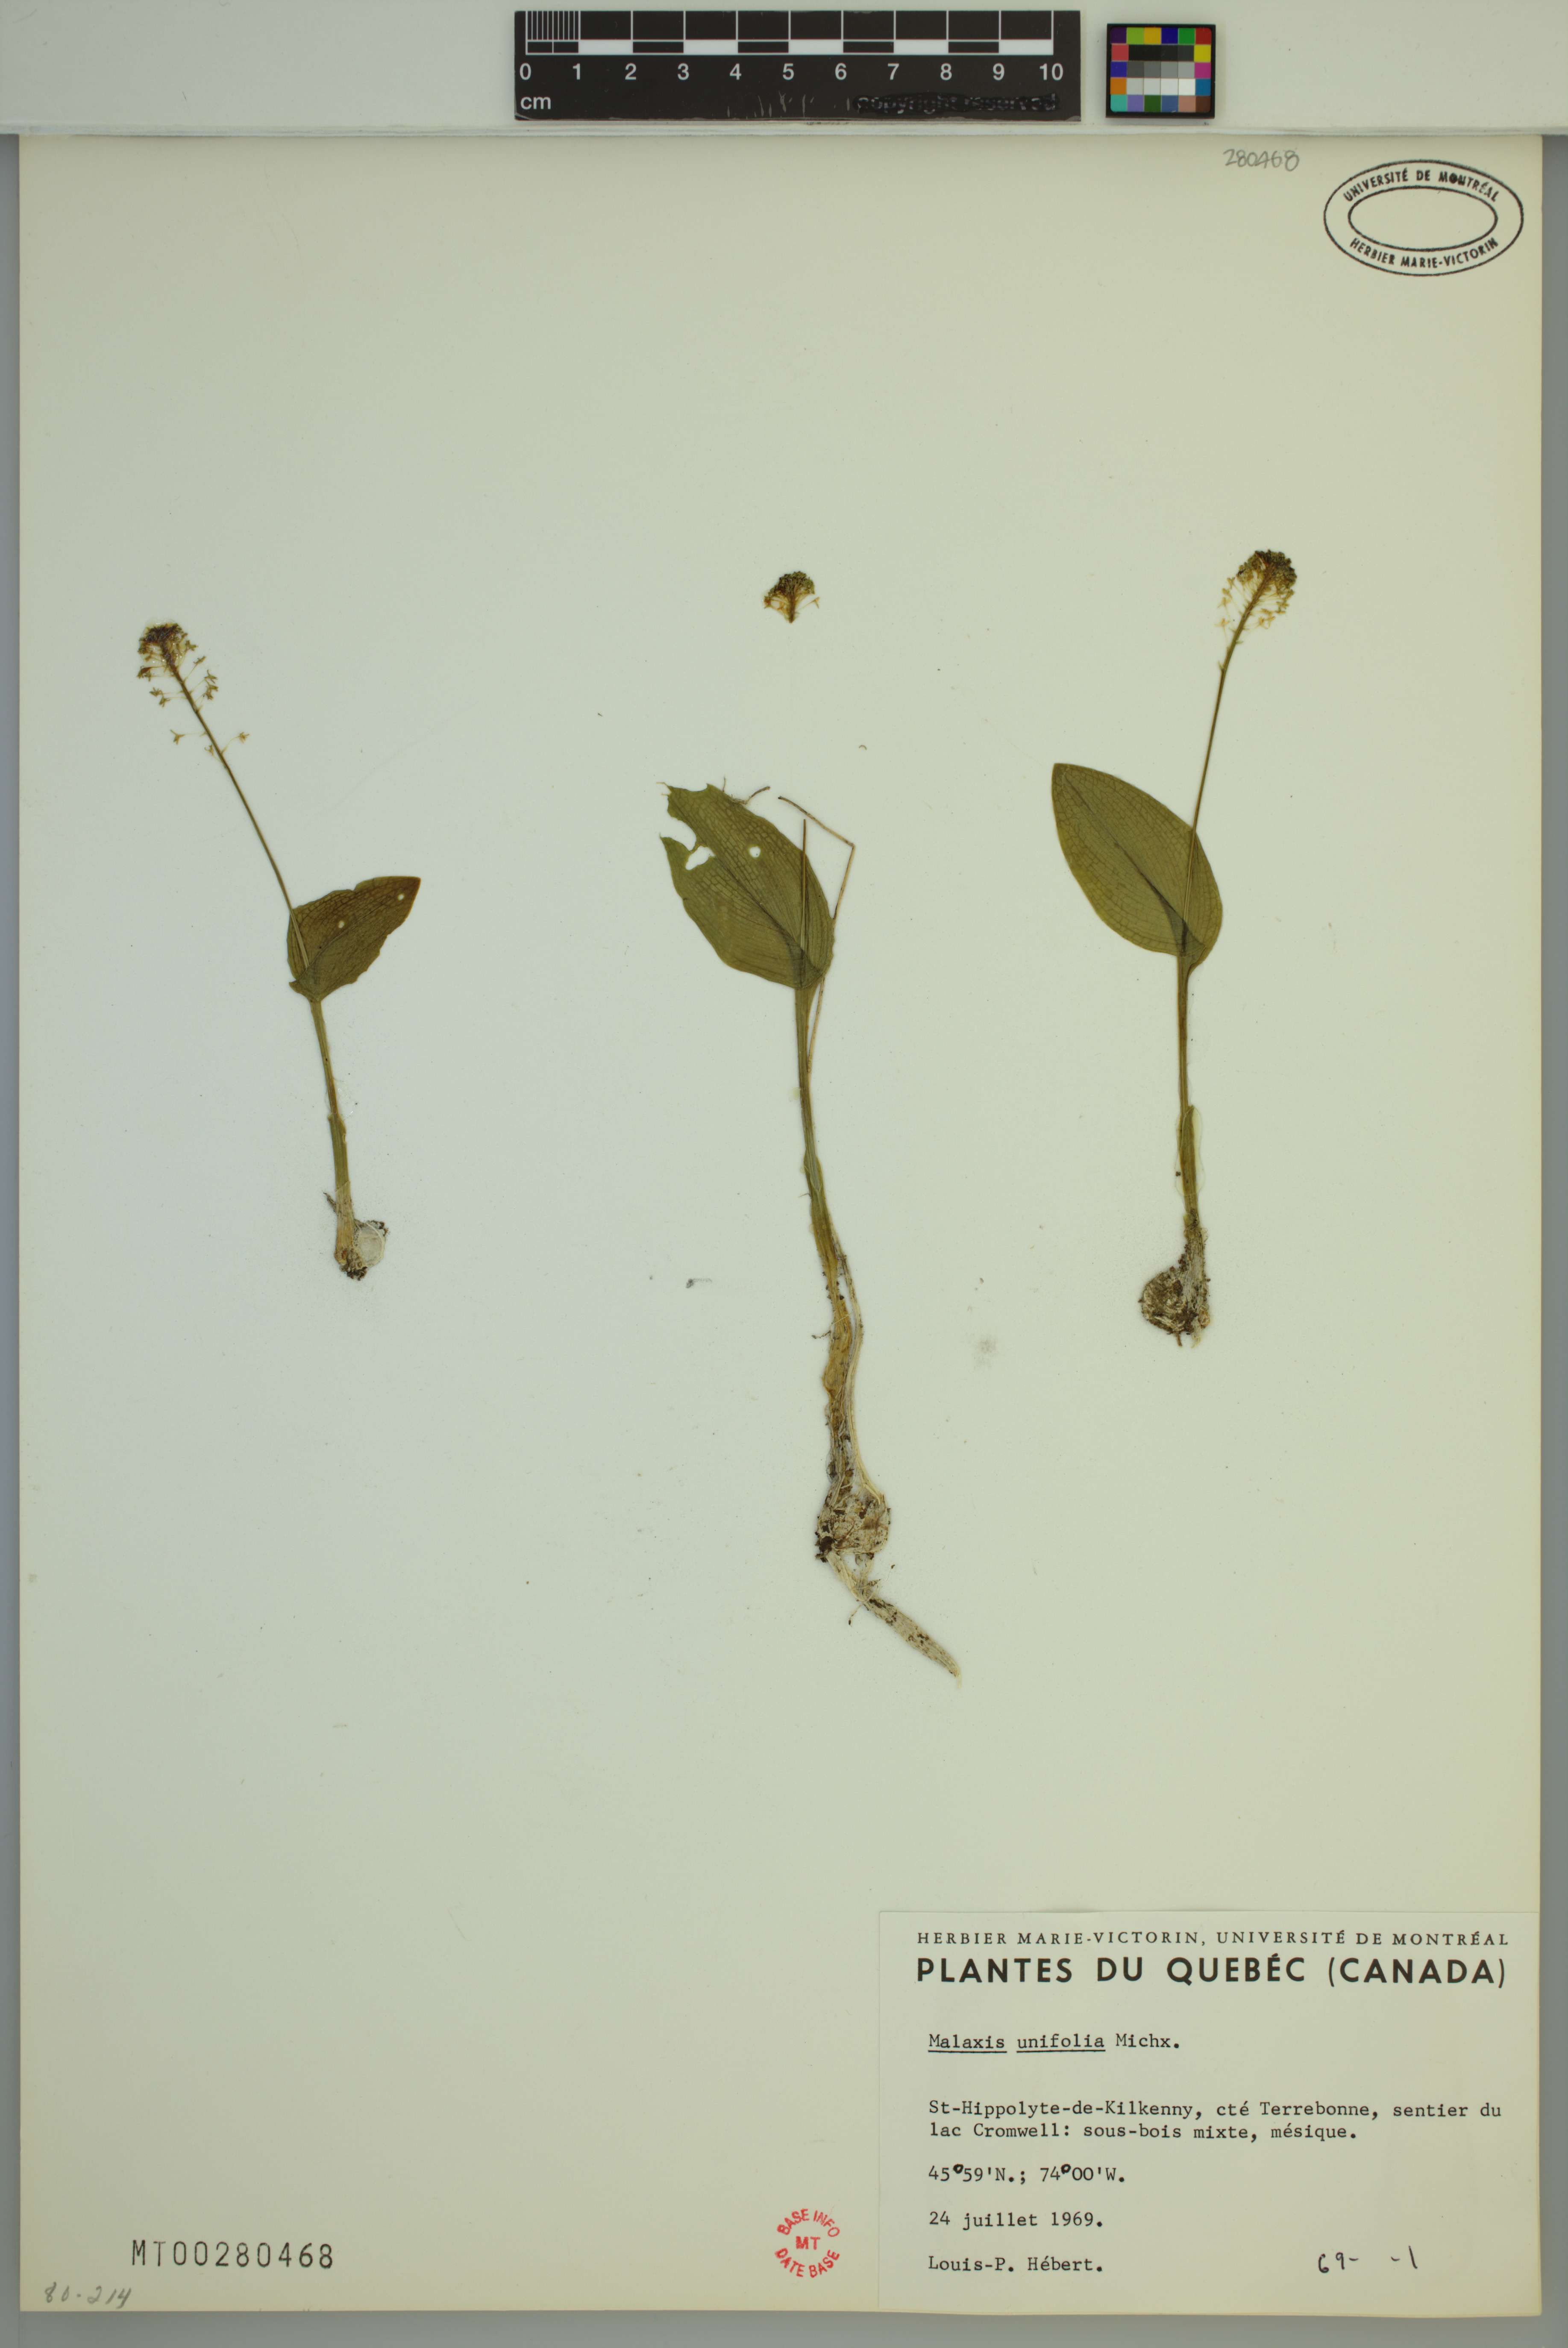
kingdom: Plantae
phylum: Tracheophyta
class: Liliopsida
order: Asparagales
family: Orchidaceae
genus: Malaxis
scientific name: Malaxis unifolia
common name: Green adder's-mouth
